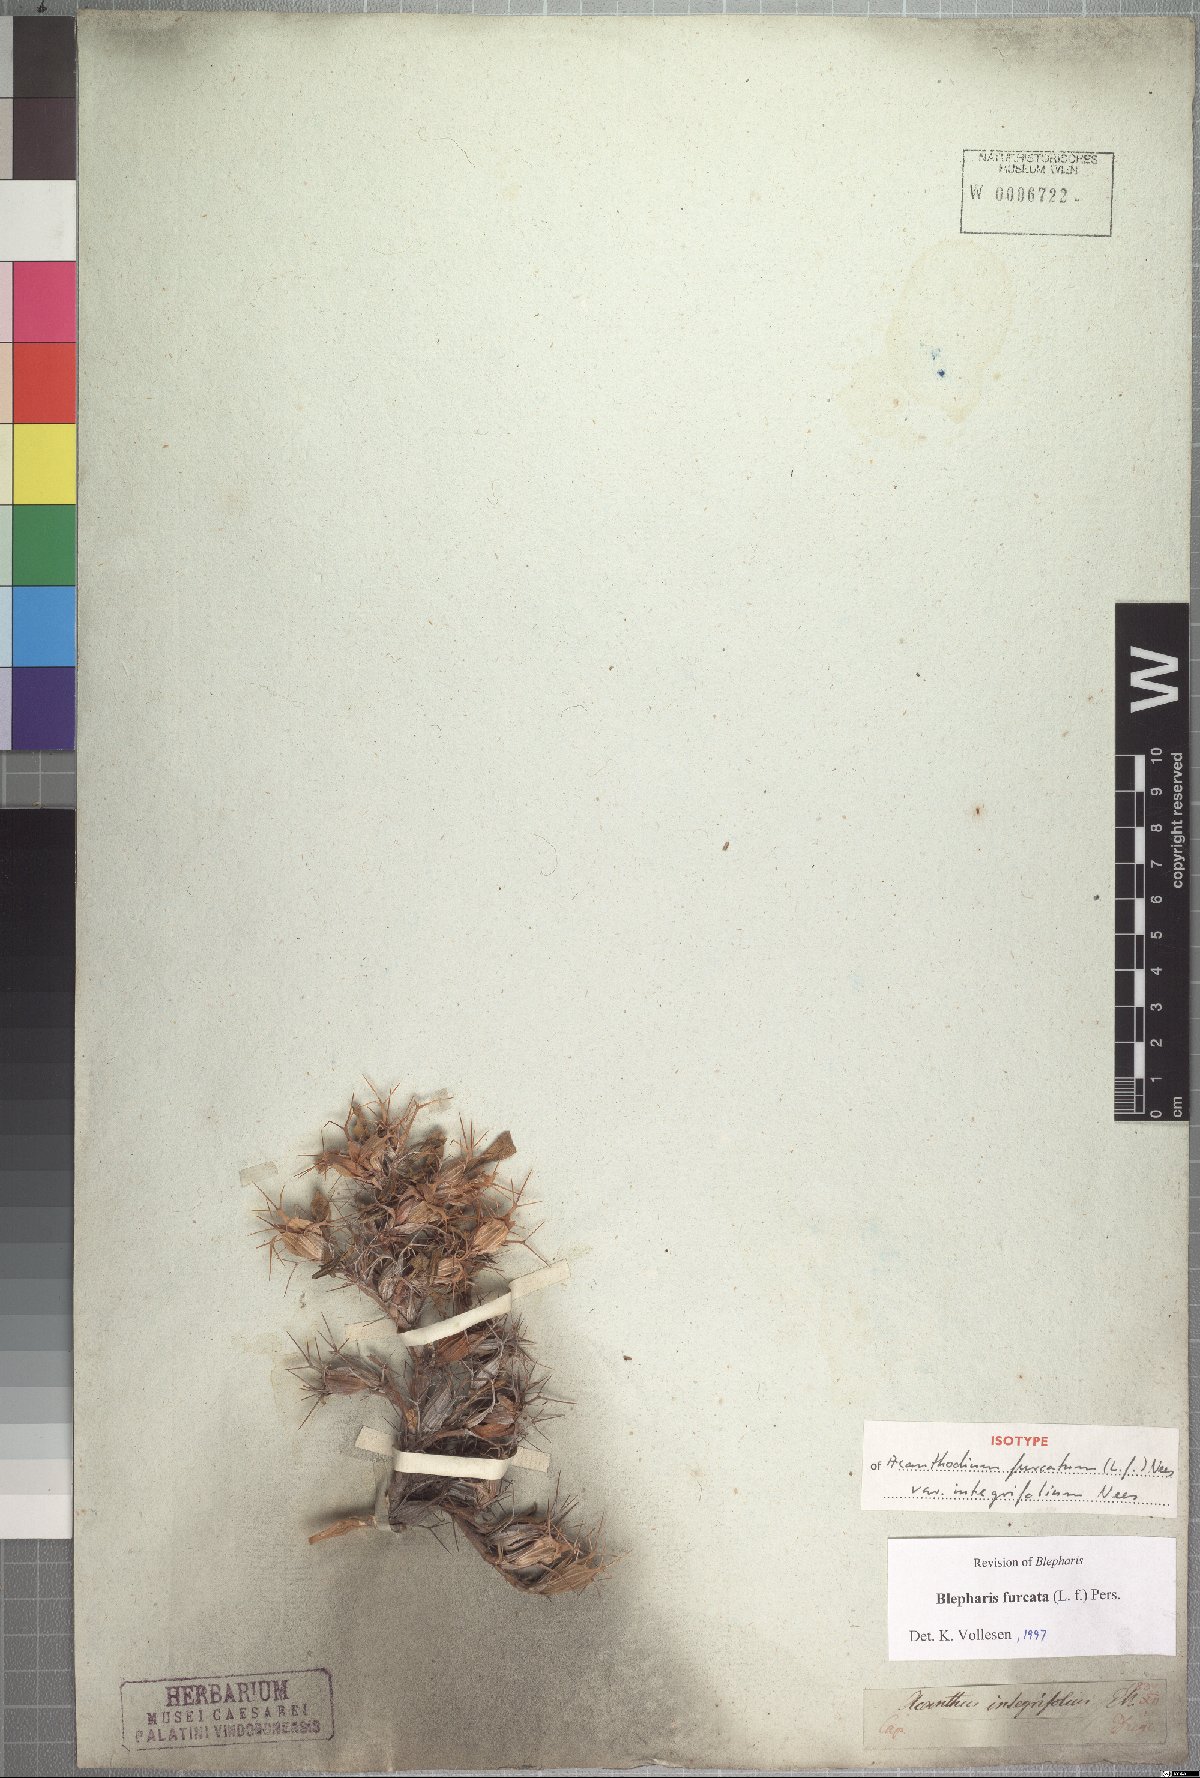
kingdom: Plantae
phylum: Tracheophyta
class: Magnoliopsida
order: Lamiales
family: Acanthaceae
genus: Blepharis
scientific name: Blepharis furcata
